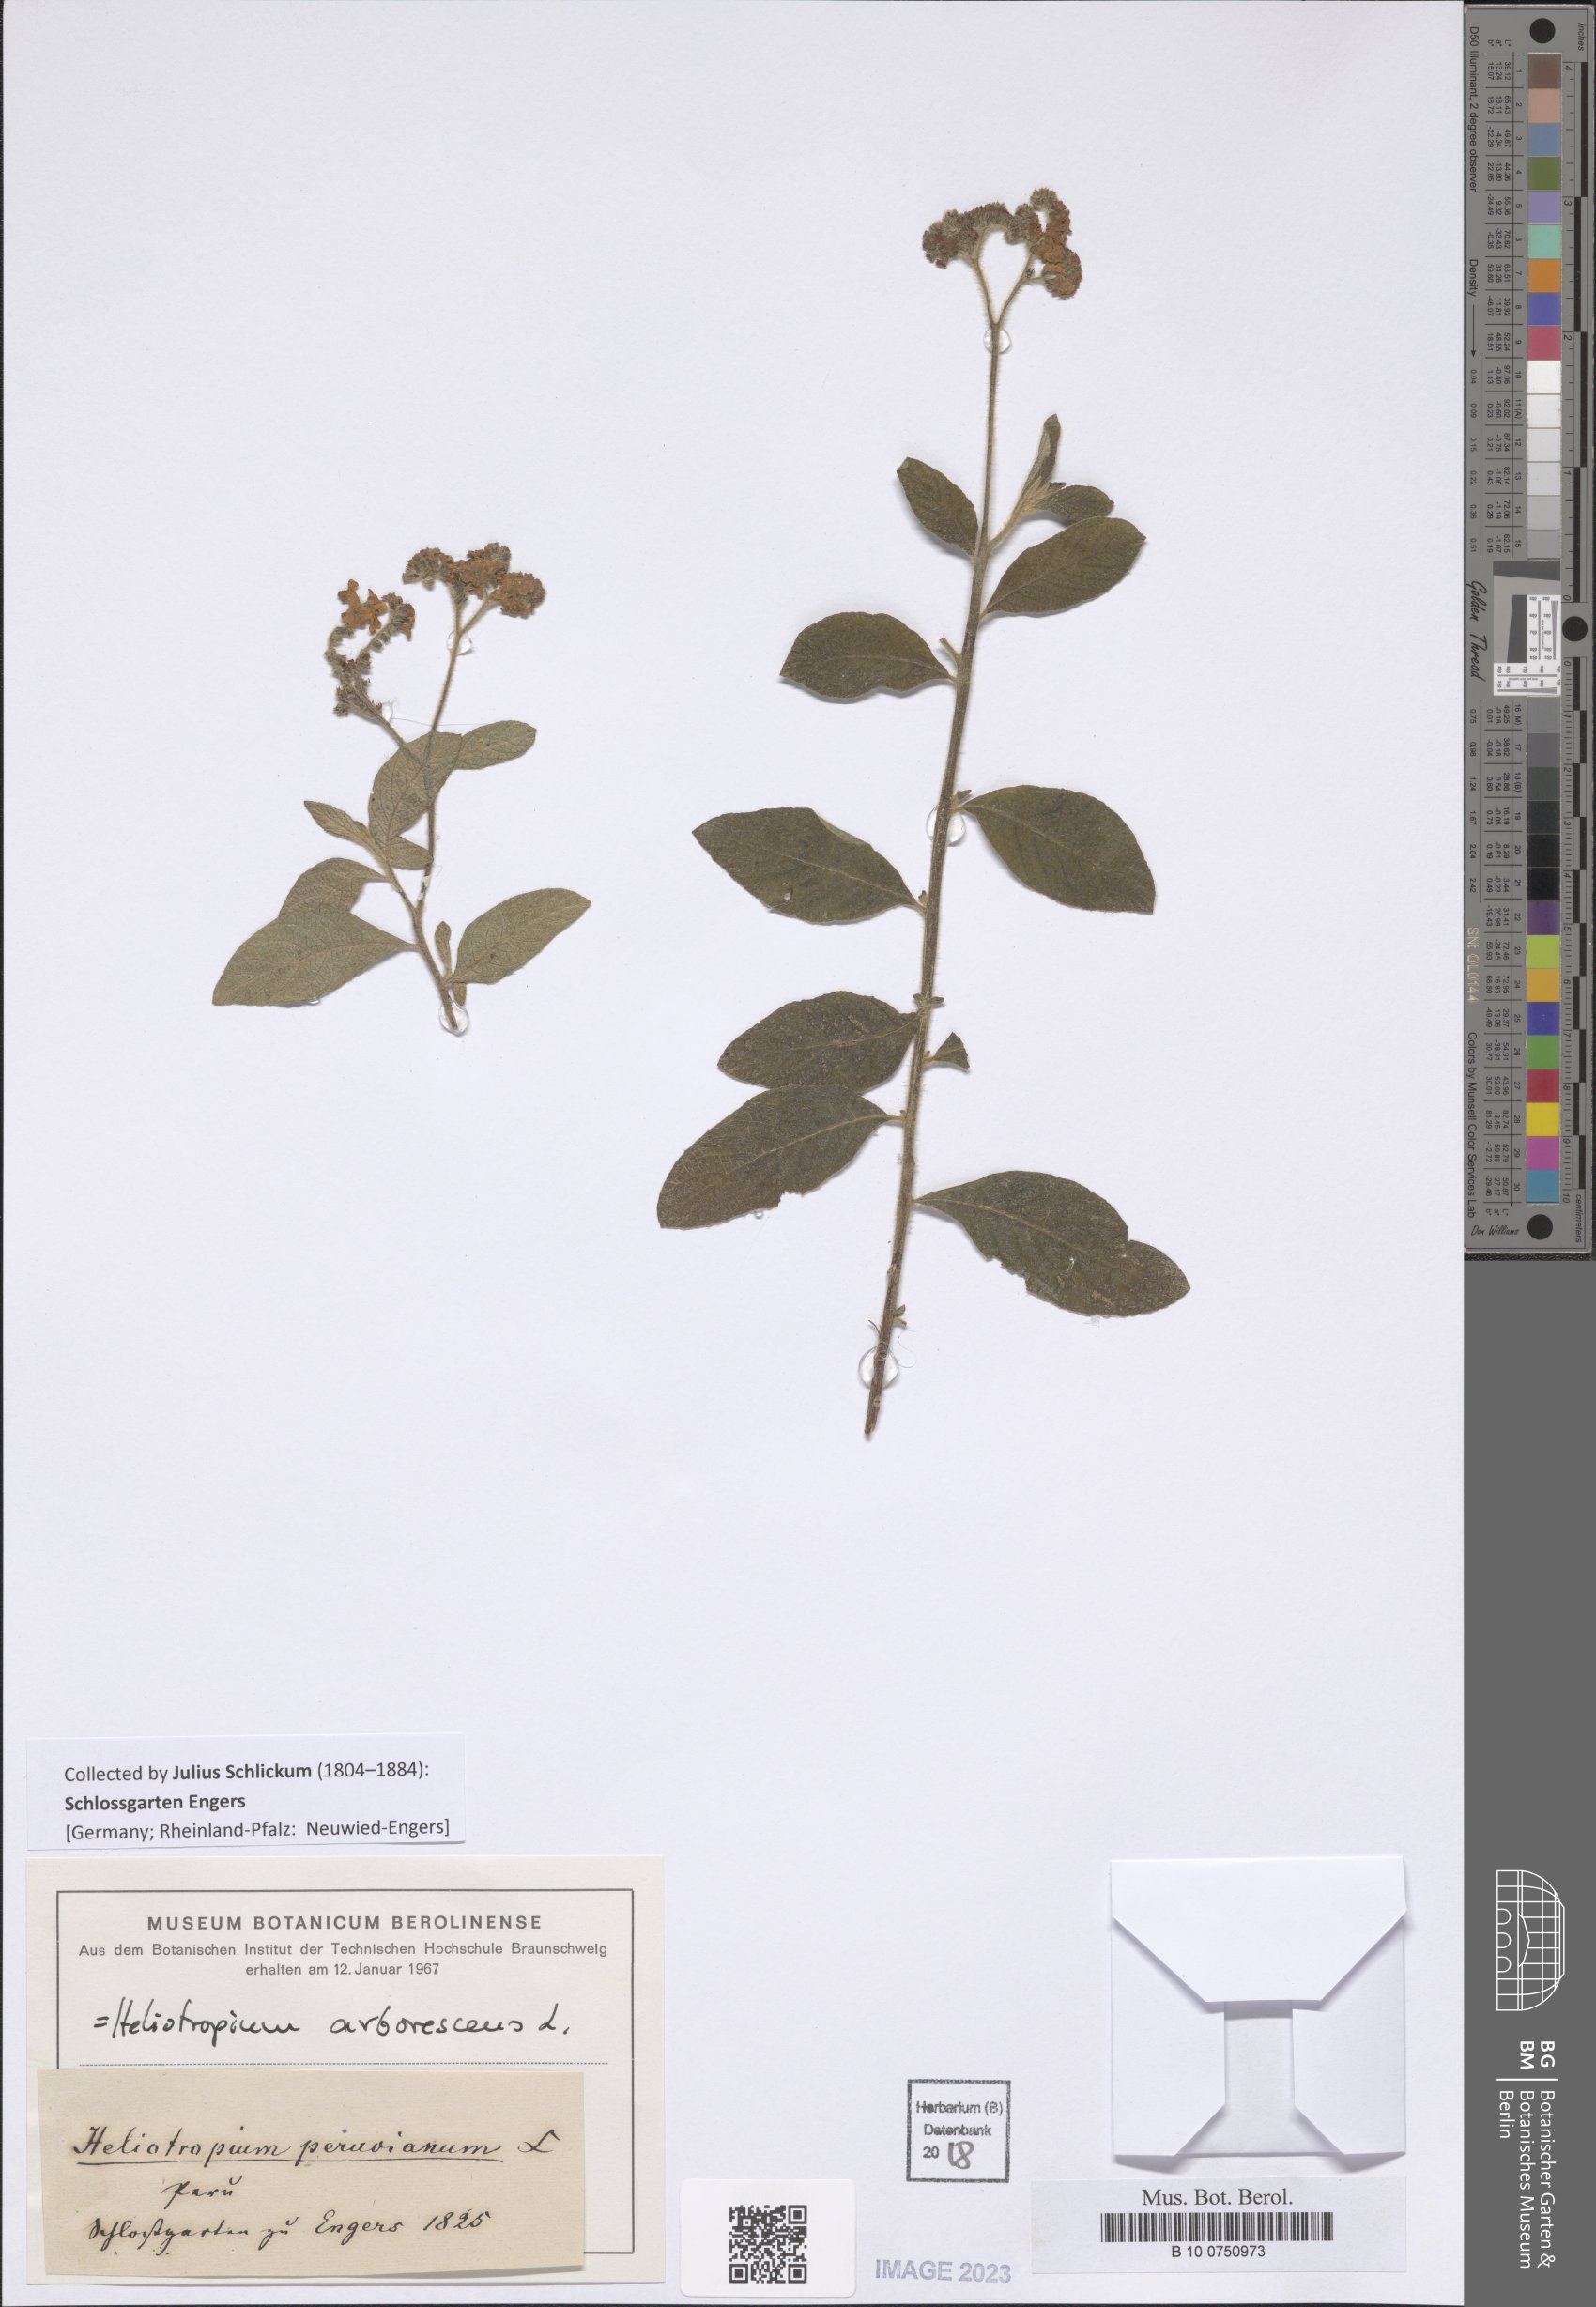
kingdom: Plantae
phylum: Tracheophyta
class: Magnoliopsida
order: Boraginales
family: Heliotropiaceae
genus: Heliotropium
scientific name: Heliotropium arborescens
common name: Cherry-pie
